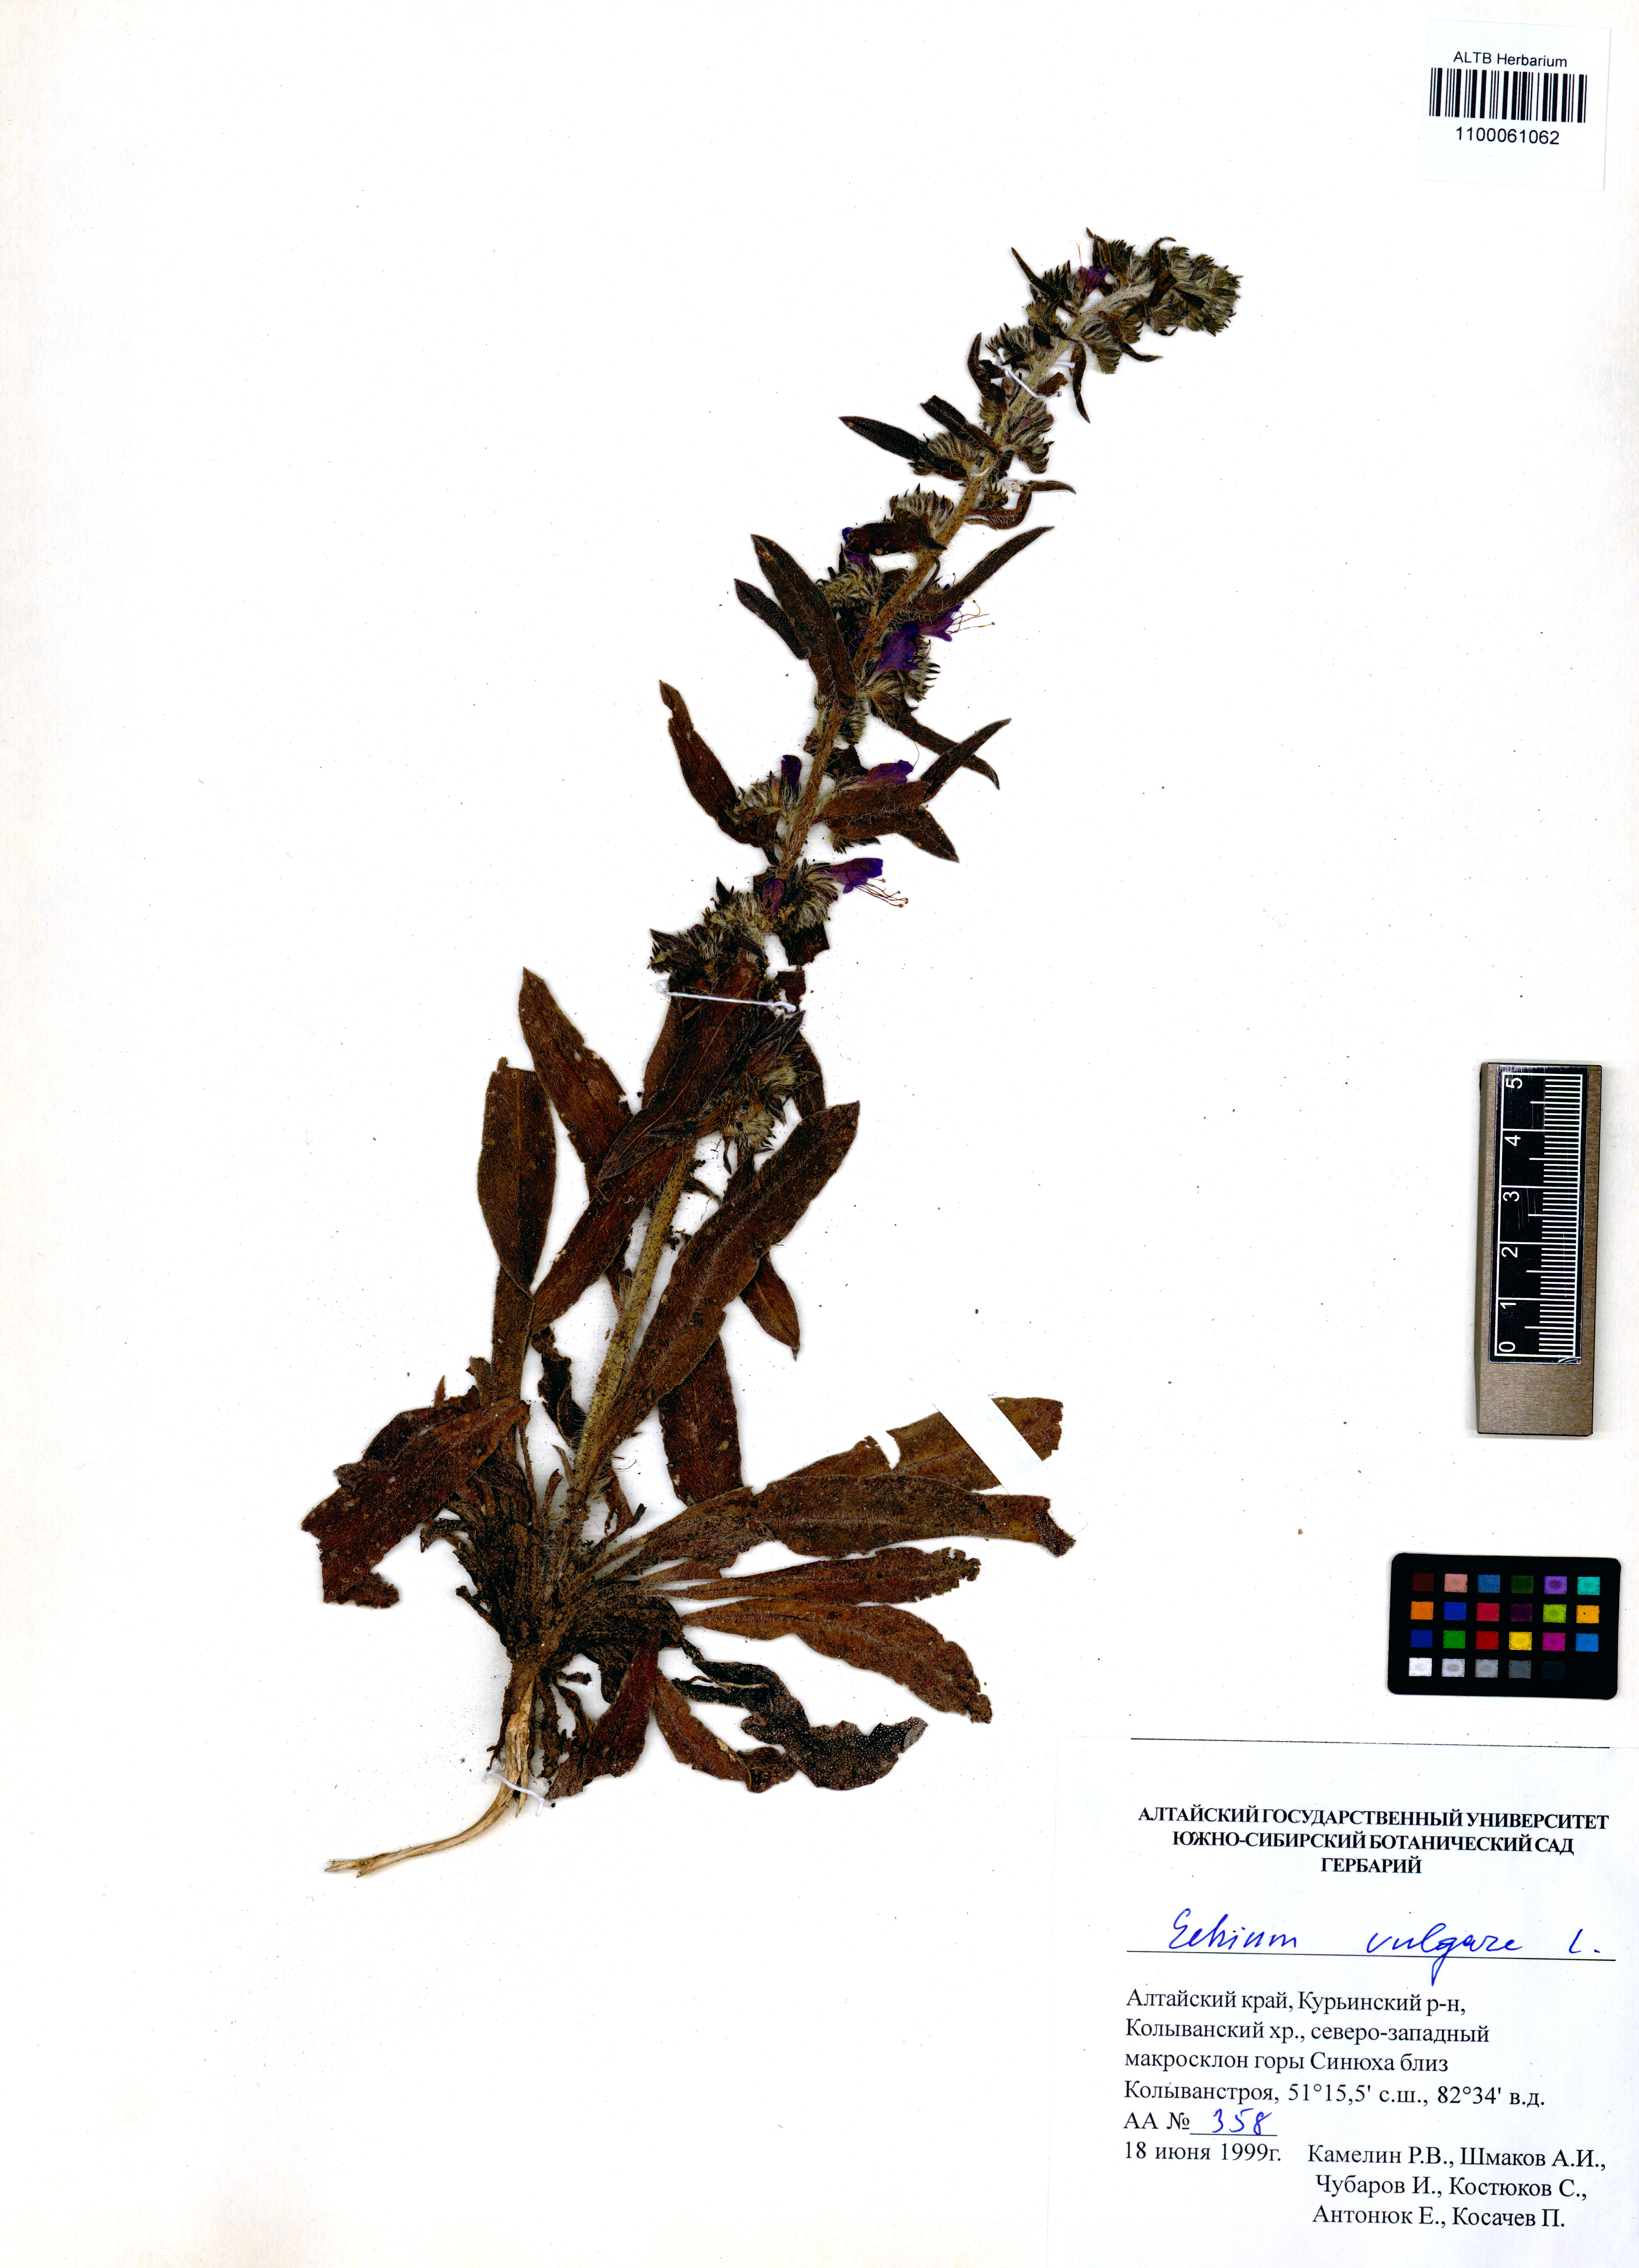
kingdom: Plantae
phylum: Tracheophyta
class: Magnoliopsida
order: Boraginales
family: Boraginaceae
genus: Echium
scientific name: Echium vulgare
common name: Common viper's bugloss
